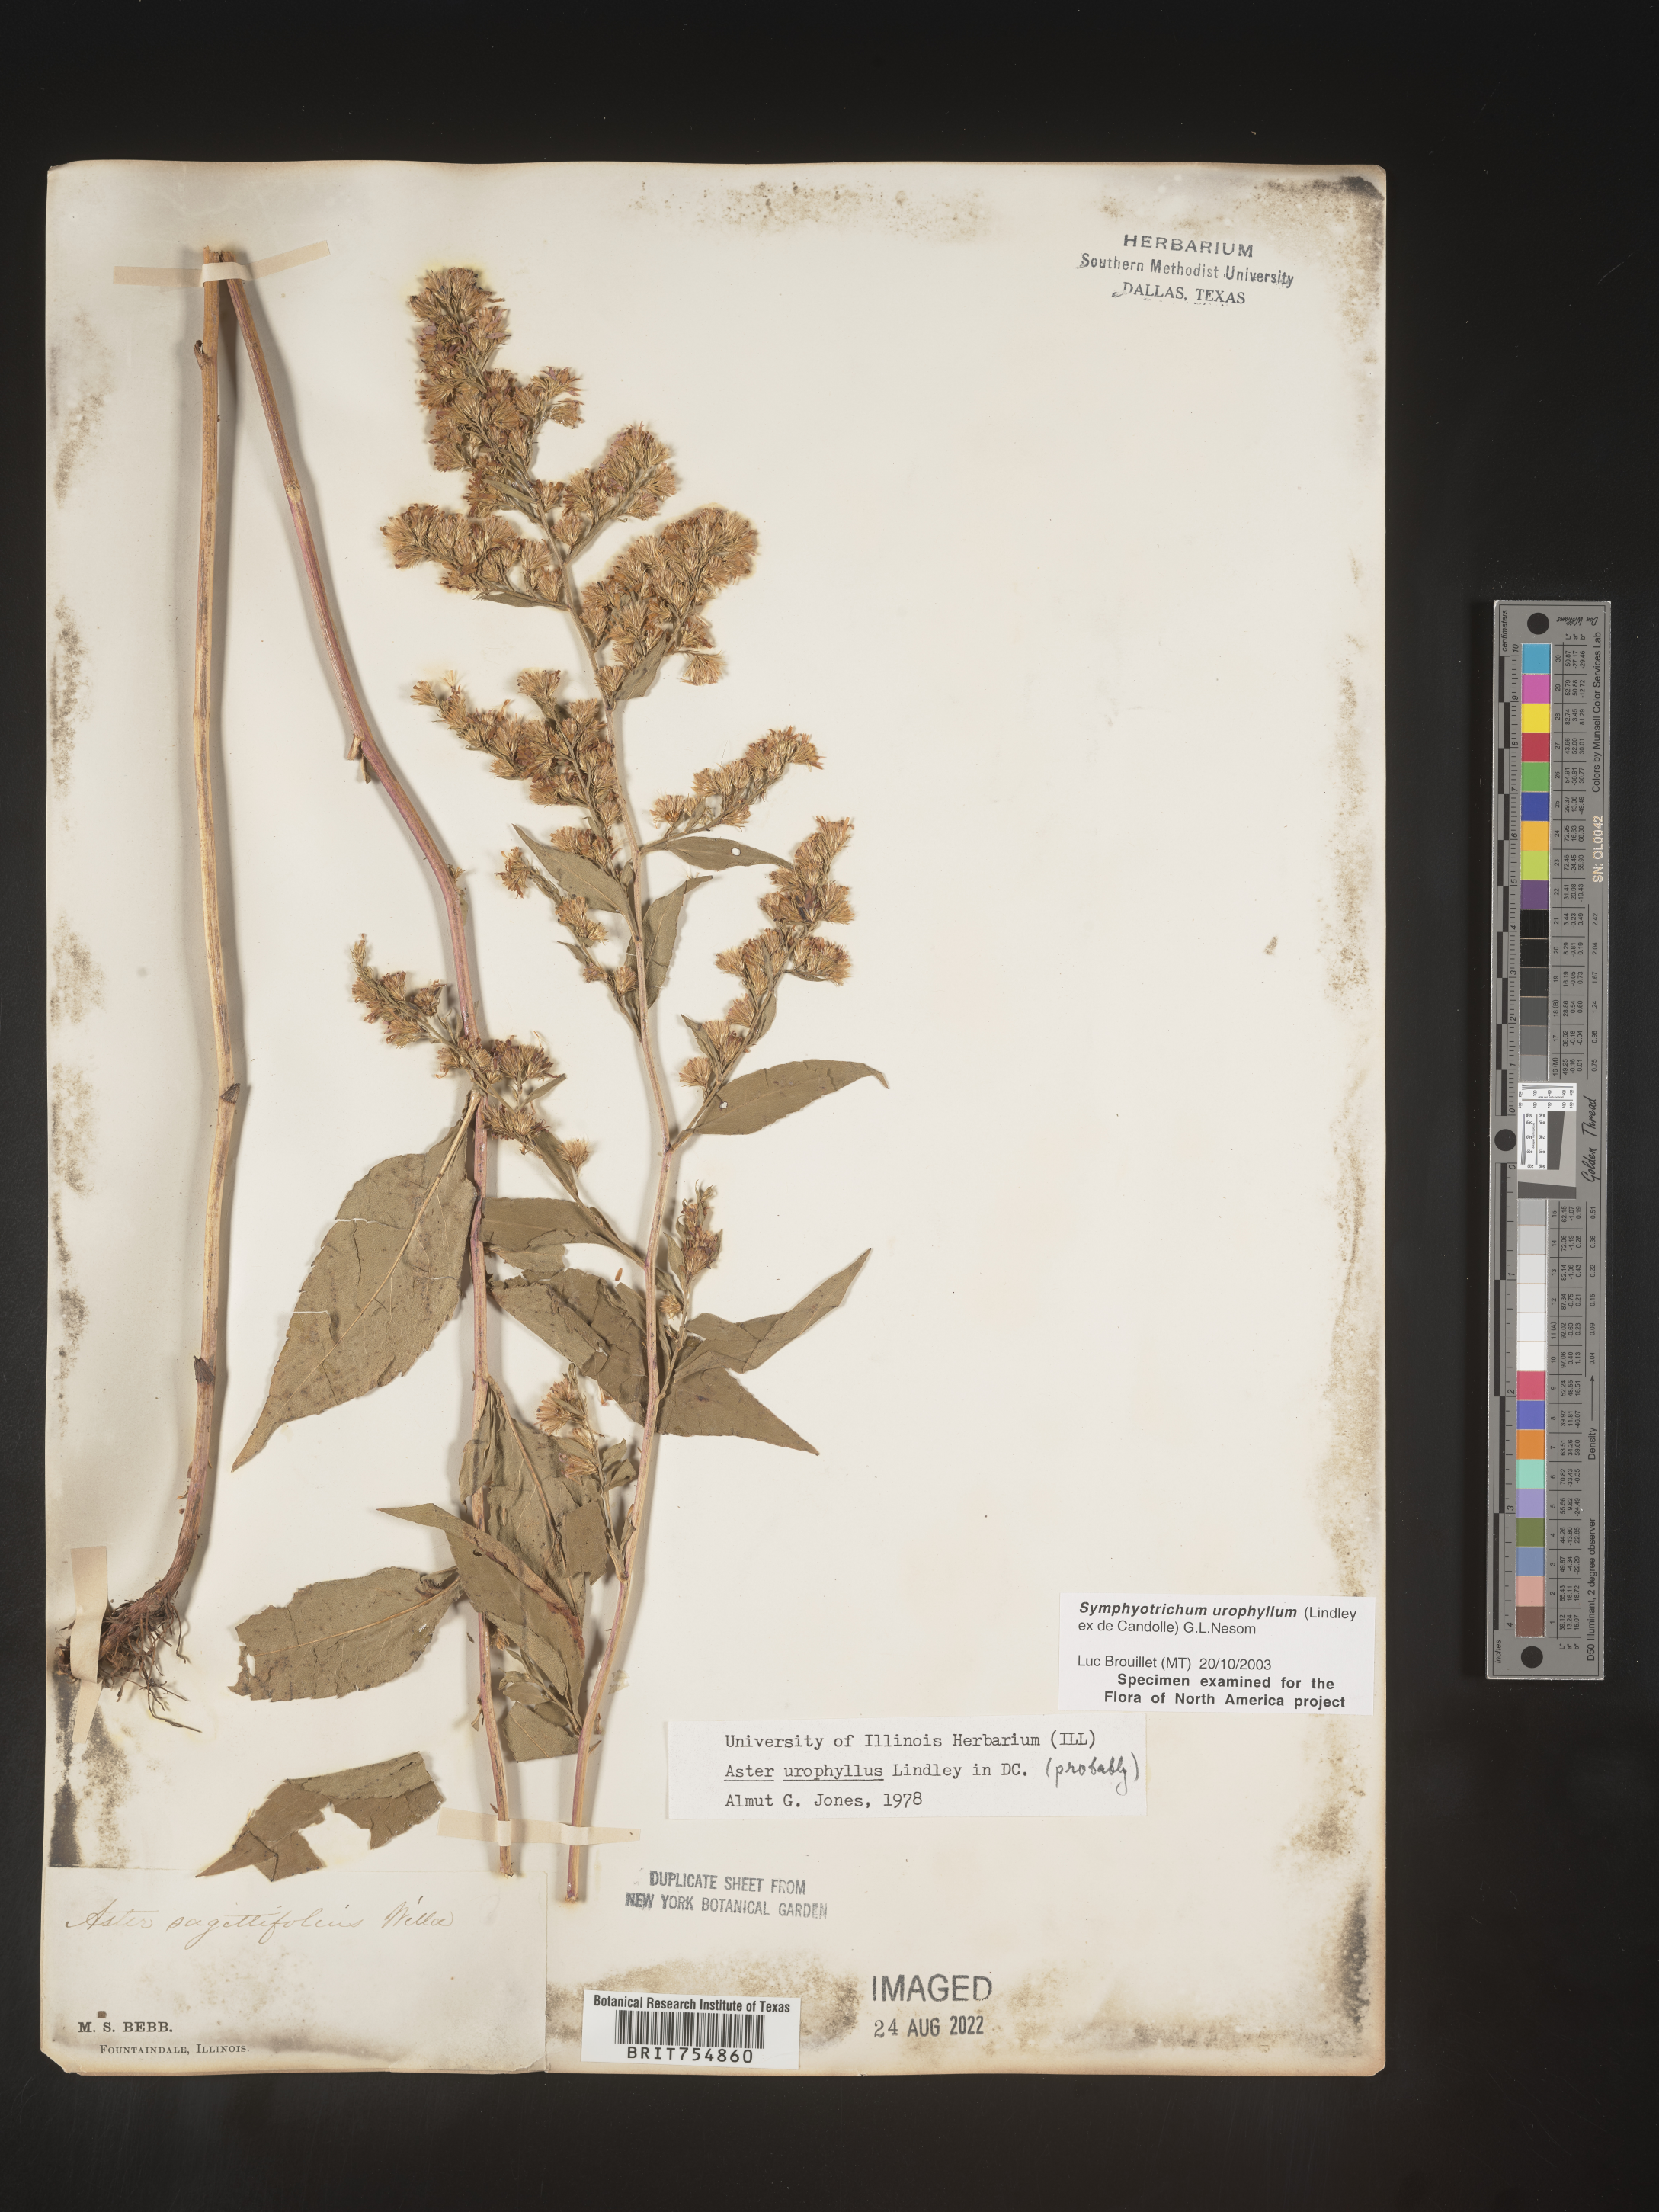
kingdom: Plantae
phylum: Tracheophyta
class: Magnoliopsida
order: Asterales
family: Asteraceae
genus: Symphyotrichum
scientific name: Symphyotrichum urophyllum
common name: Arrow-leaved aster
